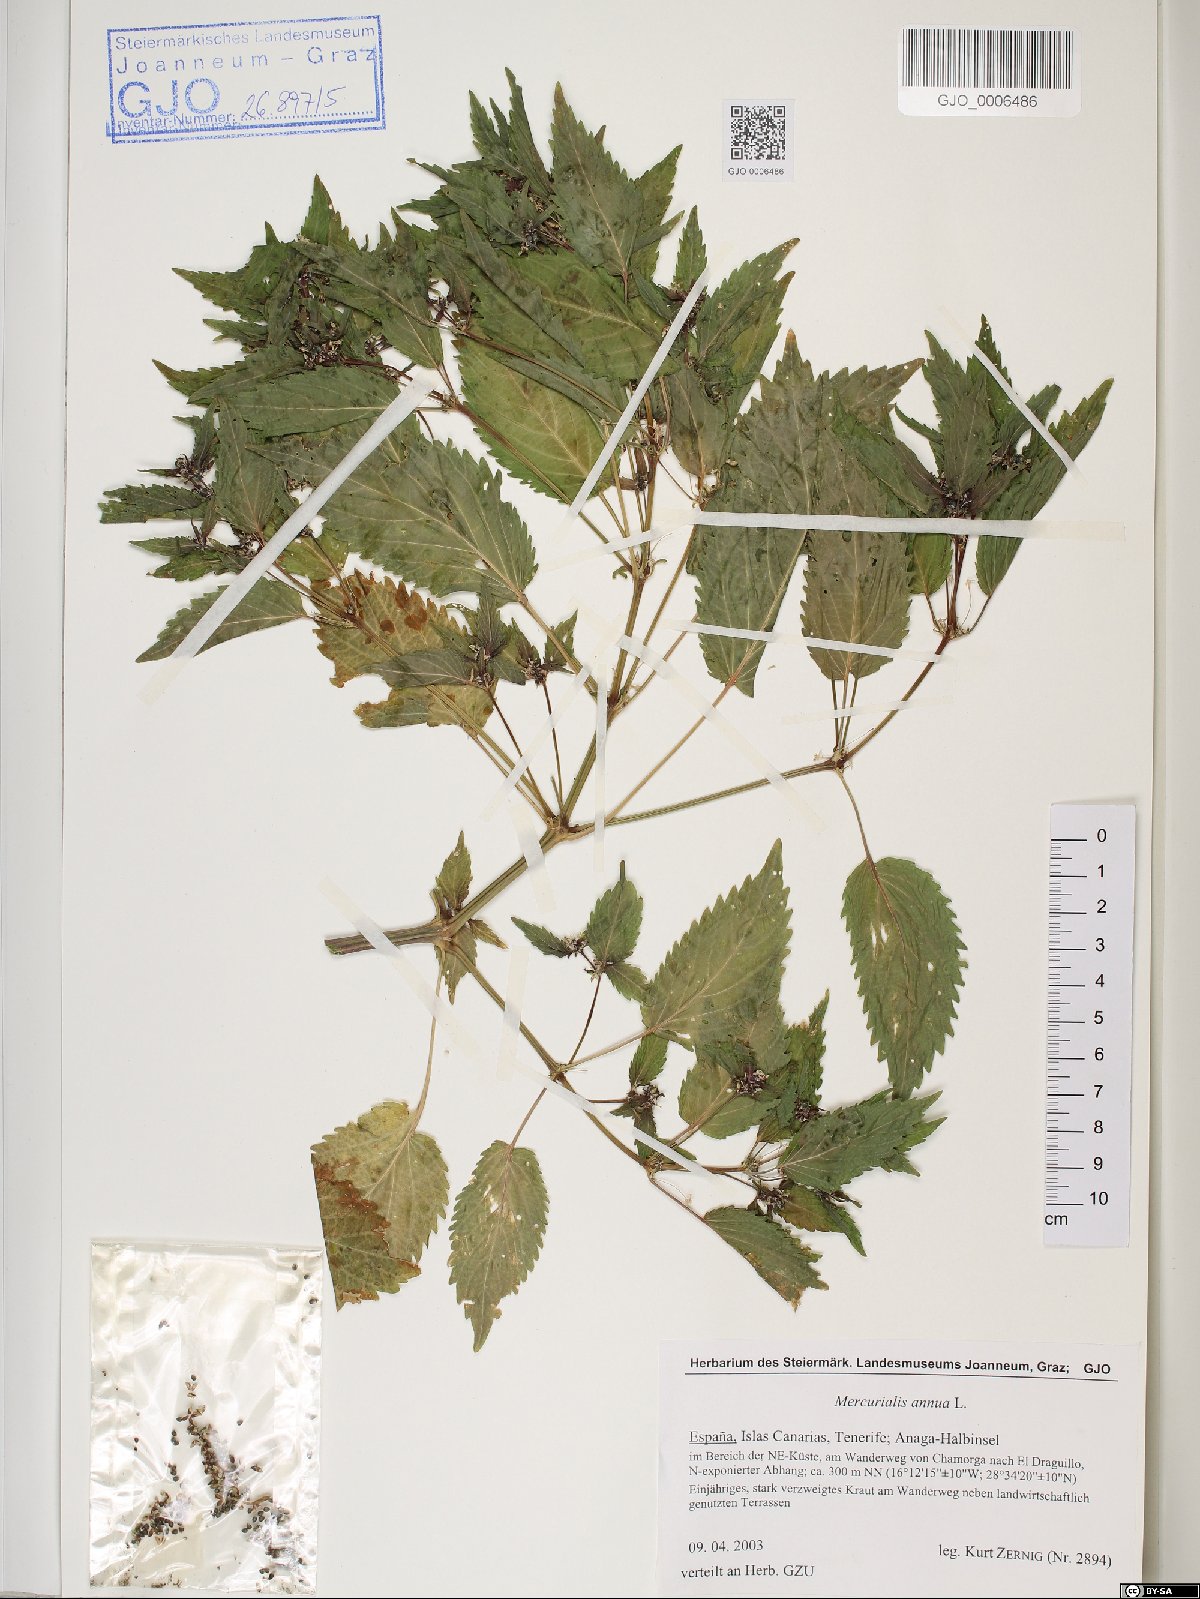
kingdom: Plantae
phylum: Tracheophyta
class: Magnoliopsida
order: Malpighiales
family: Euphorbiaceae
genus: Mercurialis
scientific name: Mercurialis annua
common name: Annual mercury
